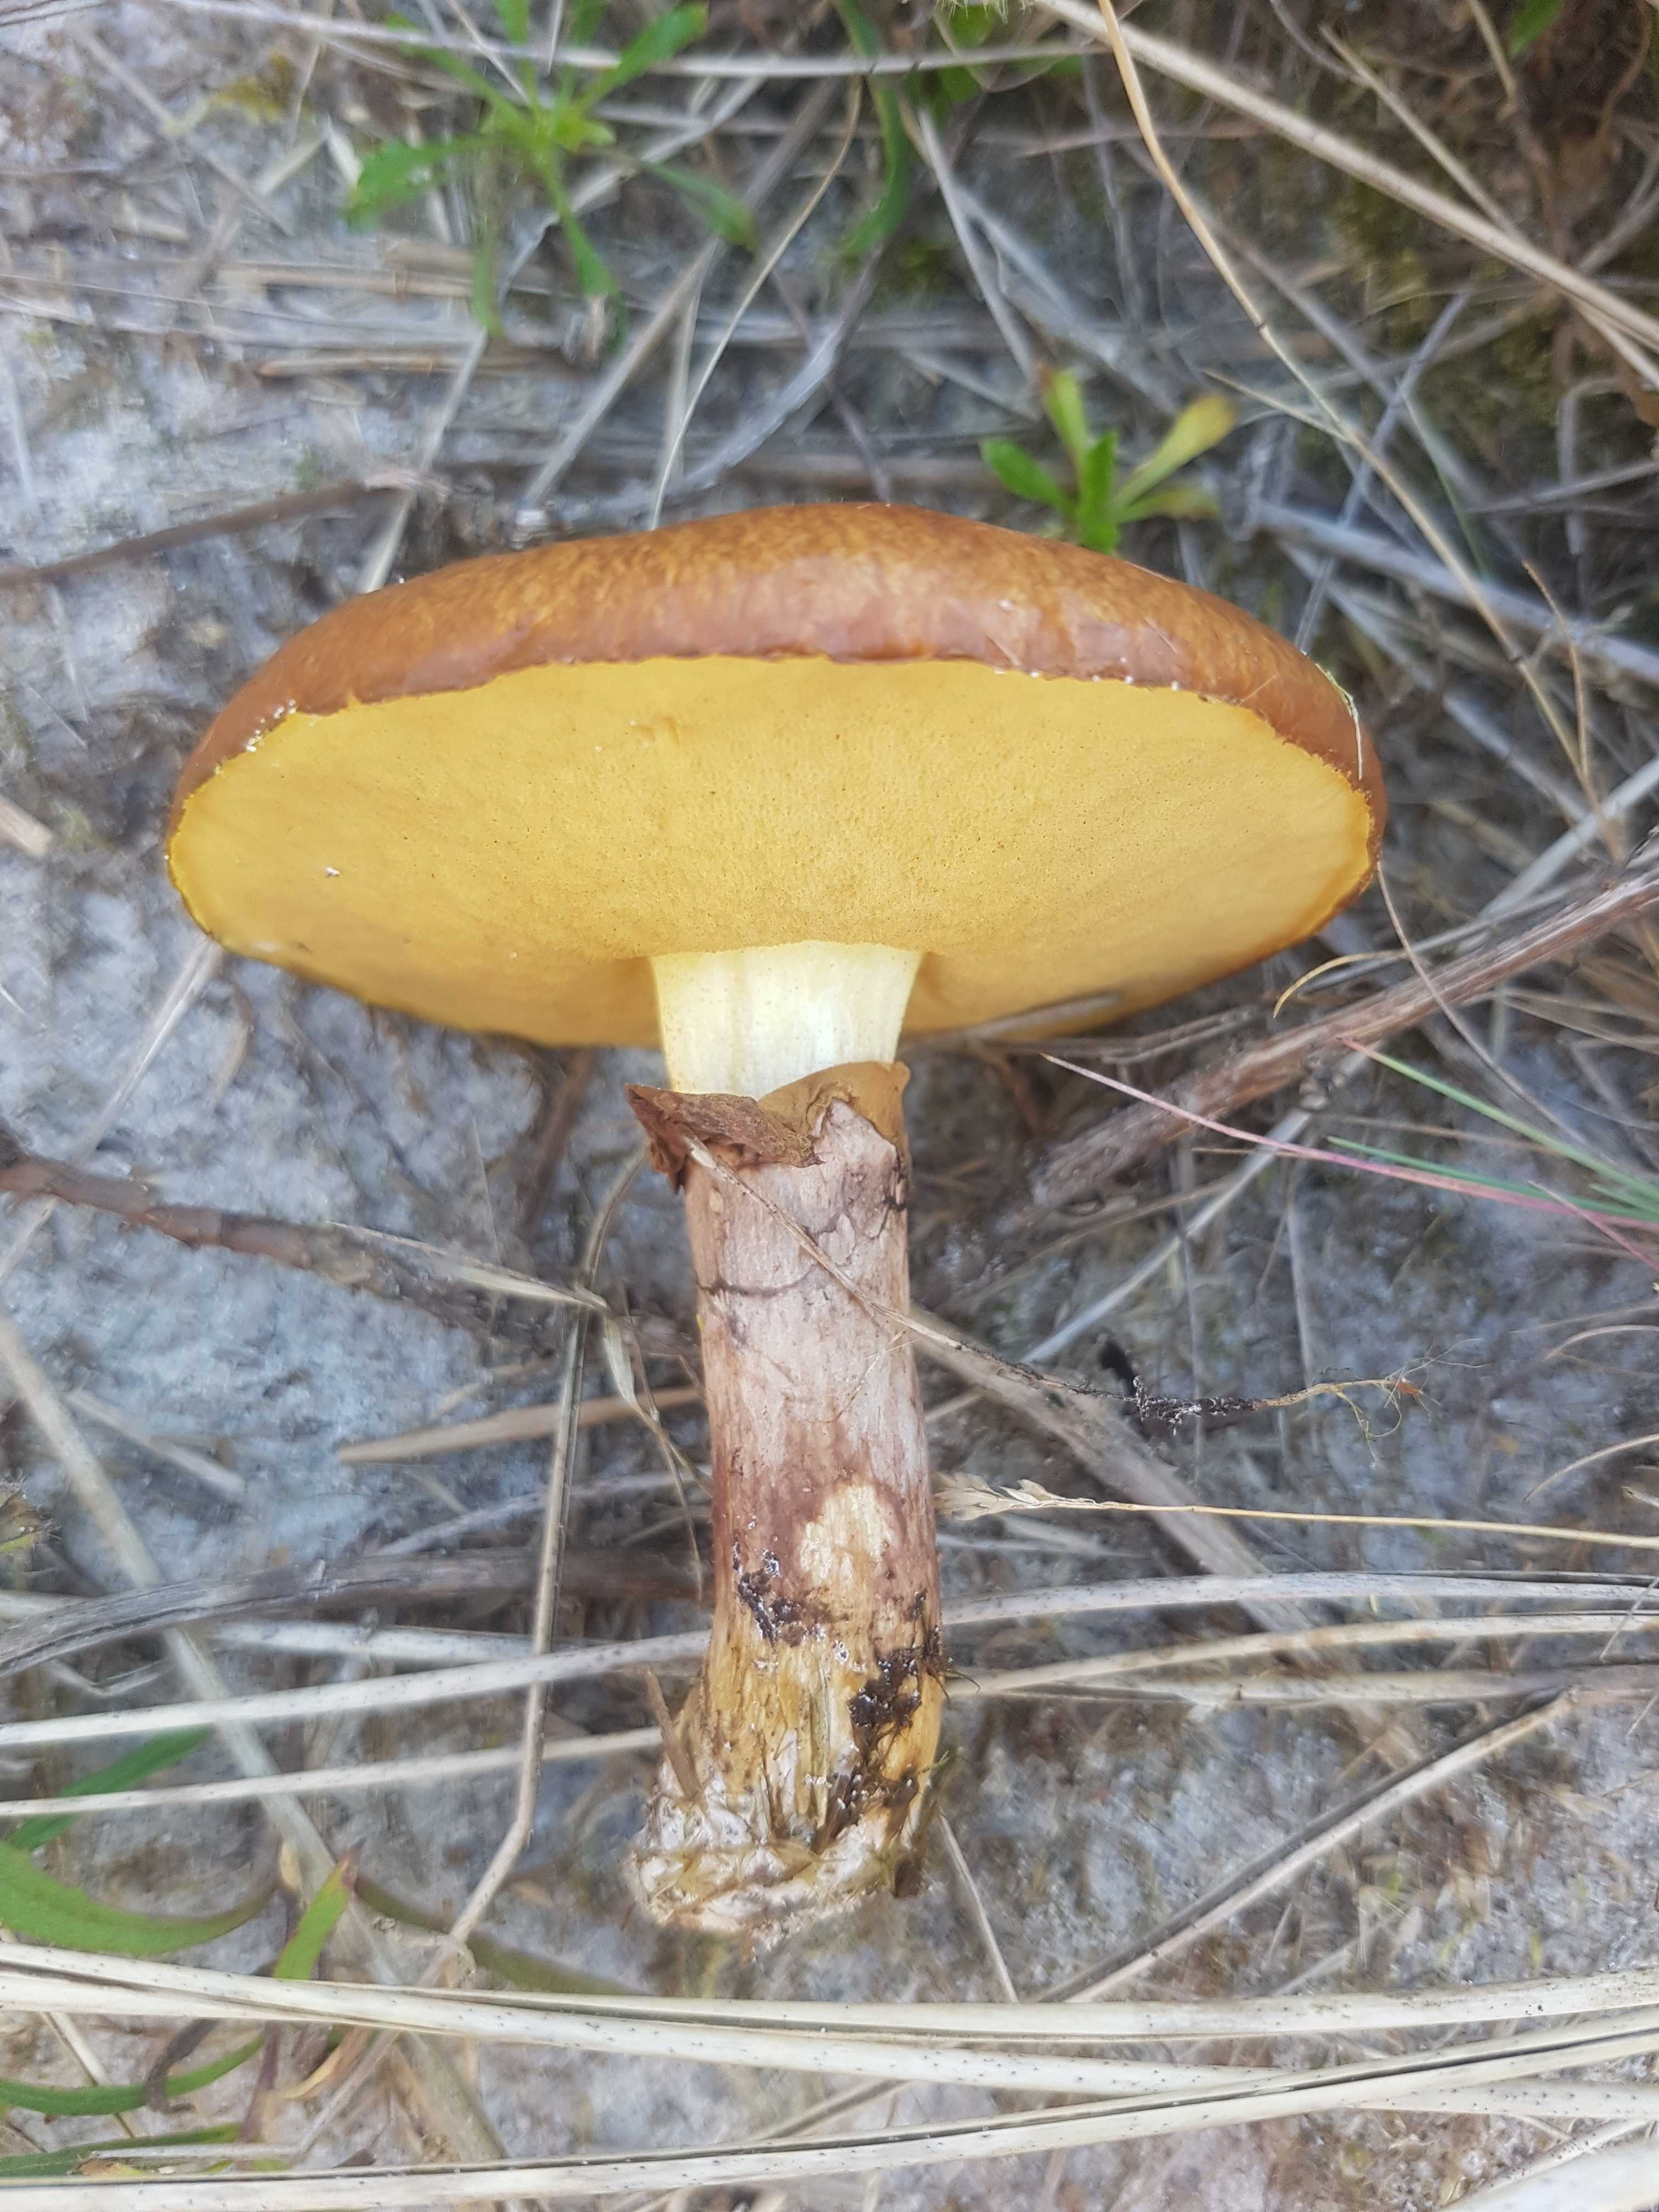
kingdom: Fungi
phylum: Basidiomycota
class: Agaricomycetes
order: Boletales
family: Suillaceae
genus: Suillus
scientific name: Suillus luteus
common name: brungul slimrørhat
